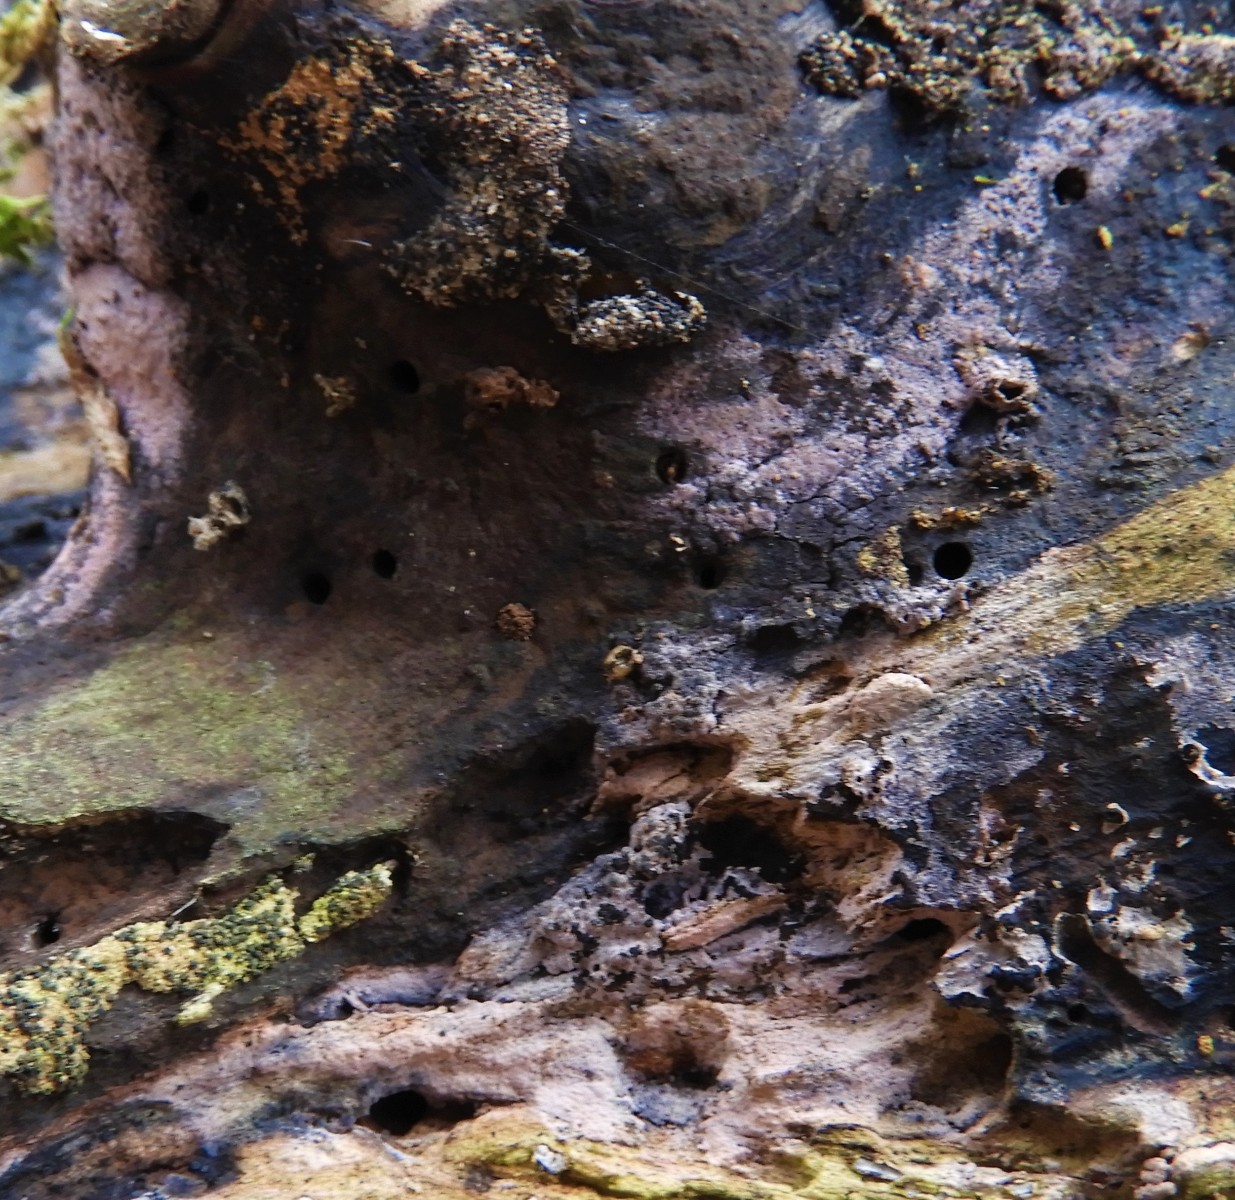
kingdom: Fungi
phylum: Basidiomycota
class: Agaricomycetes
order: Cantharellales
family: Tulasnellaceae
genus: Tulasnella
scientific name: Tulasnella violea
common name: violet ballonhinde
